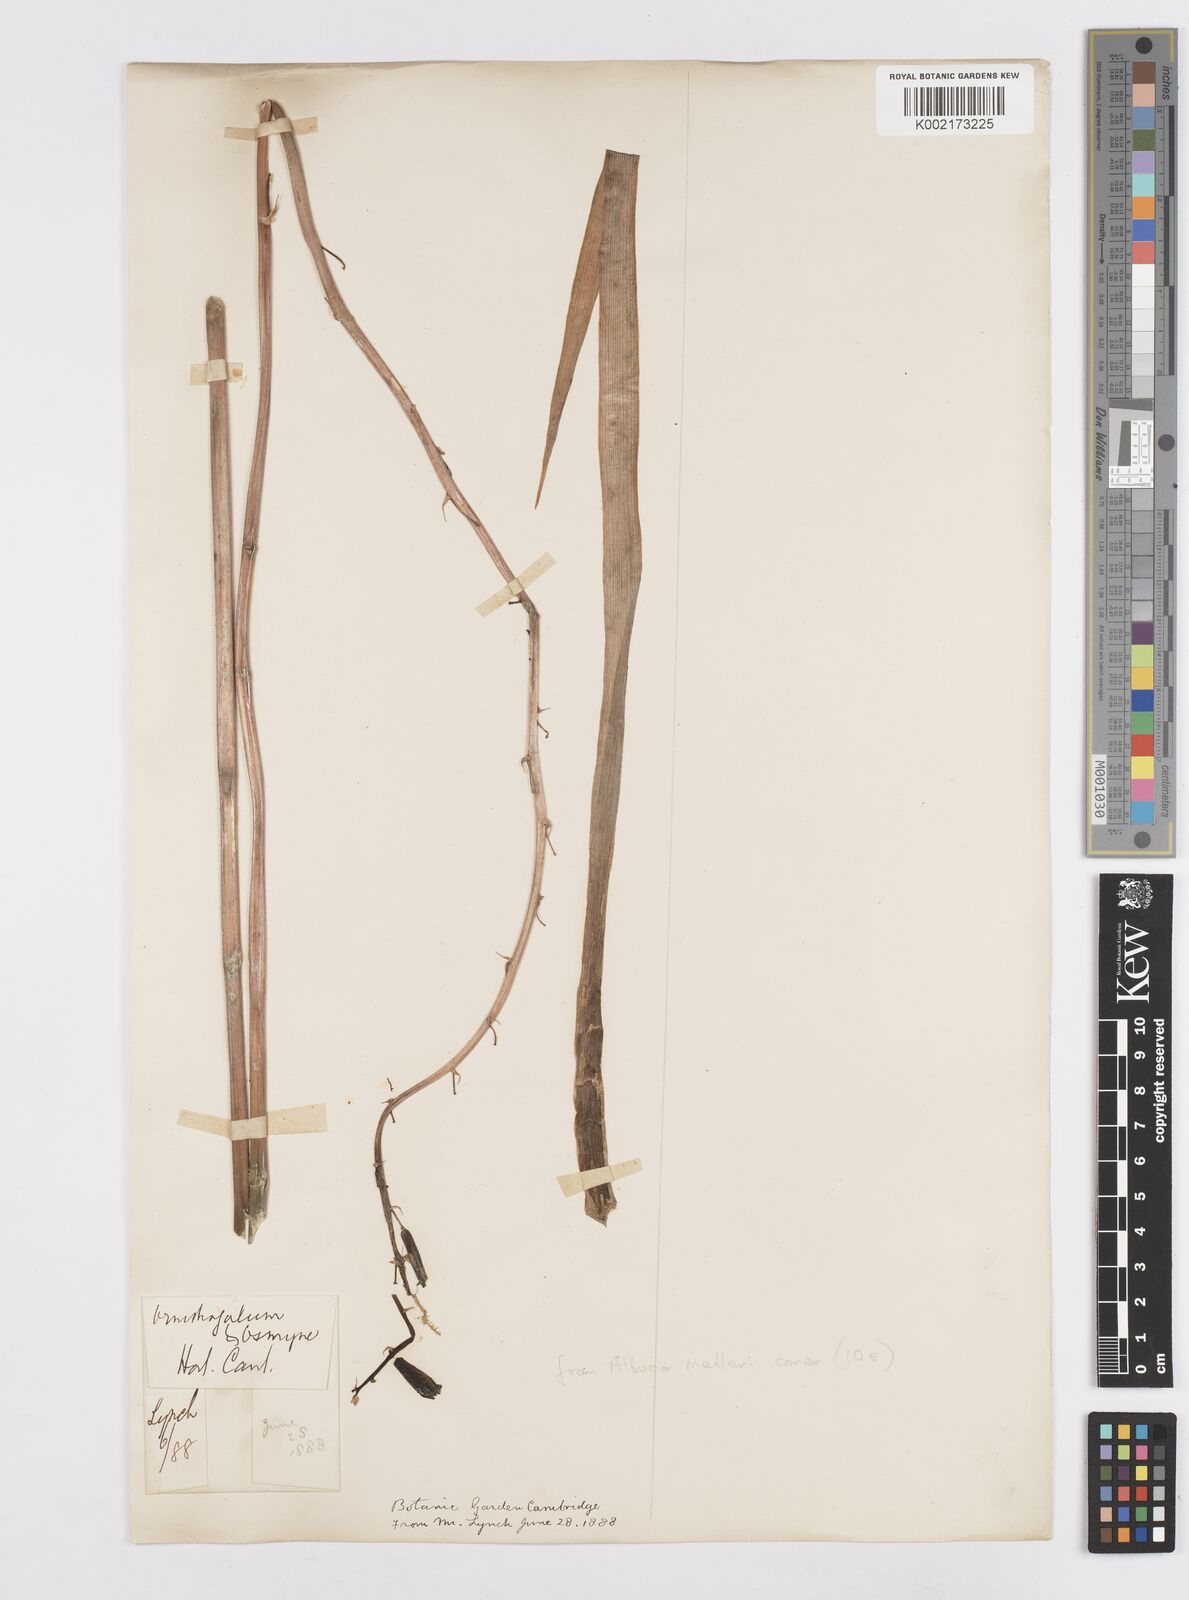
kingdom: Plantae
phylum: Tracheophyta
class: Liliopsida
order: Asparagales
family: Asparagaceae
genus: Albuca
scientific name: Albuca abyssinica
